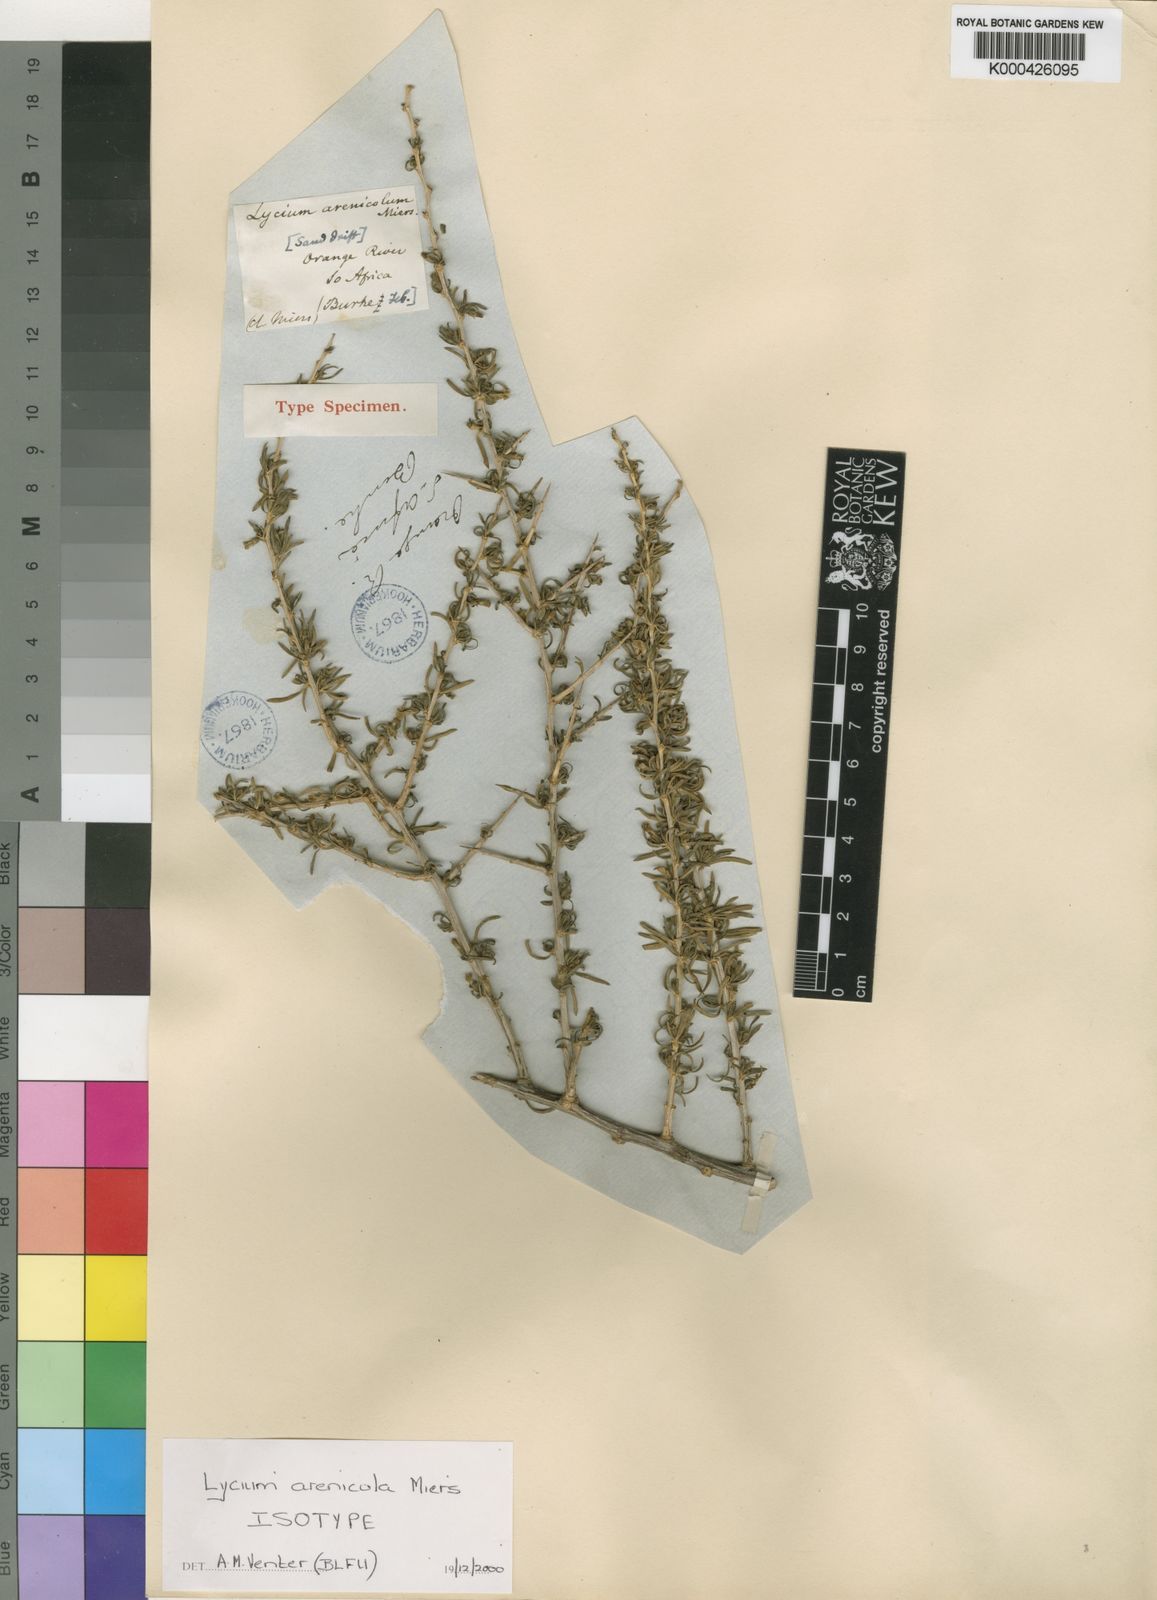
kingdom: Plantae
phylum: Tracheophyta
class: Magnoliopsida
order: Solanales
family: Solanaceae
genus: Lycium
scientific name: Lycium arenicola
